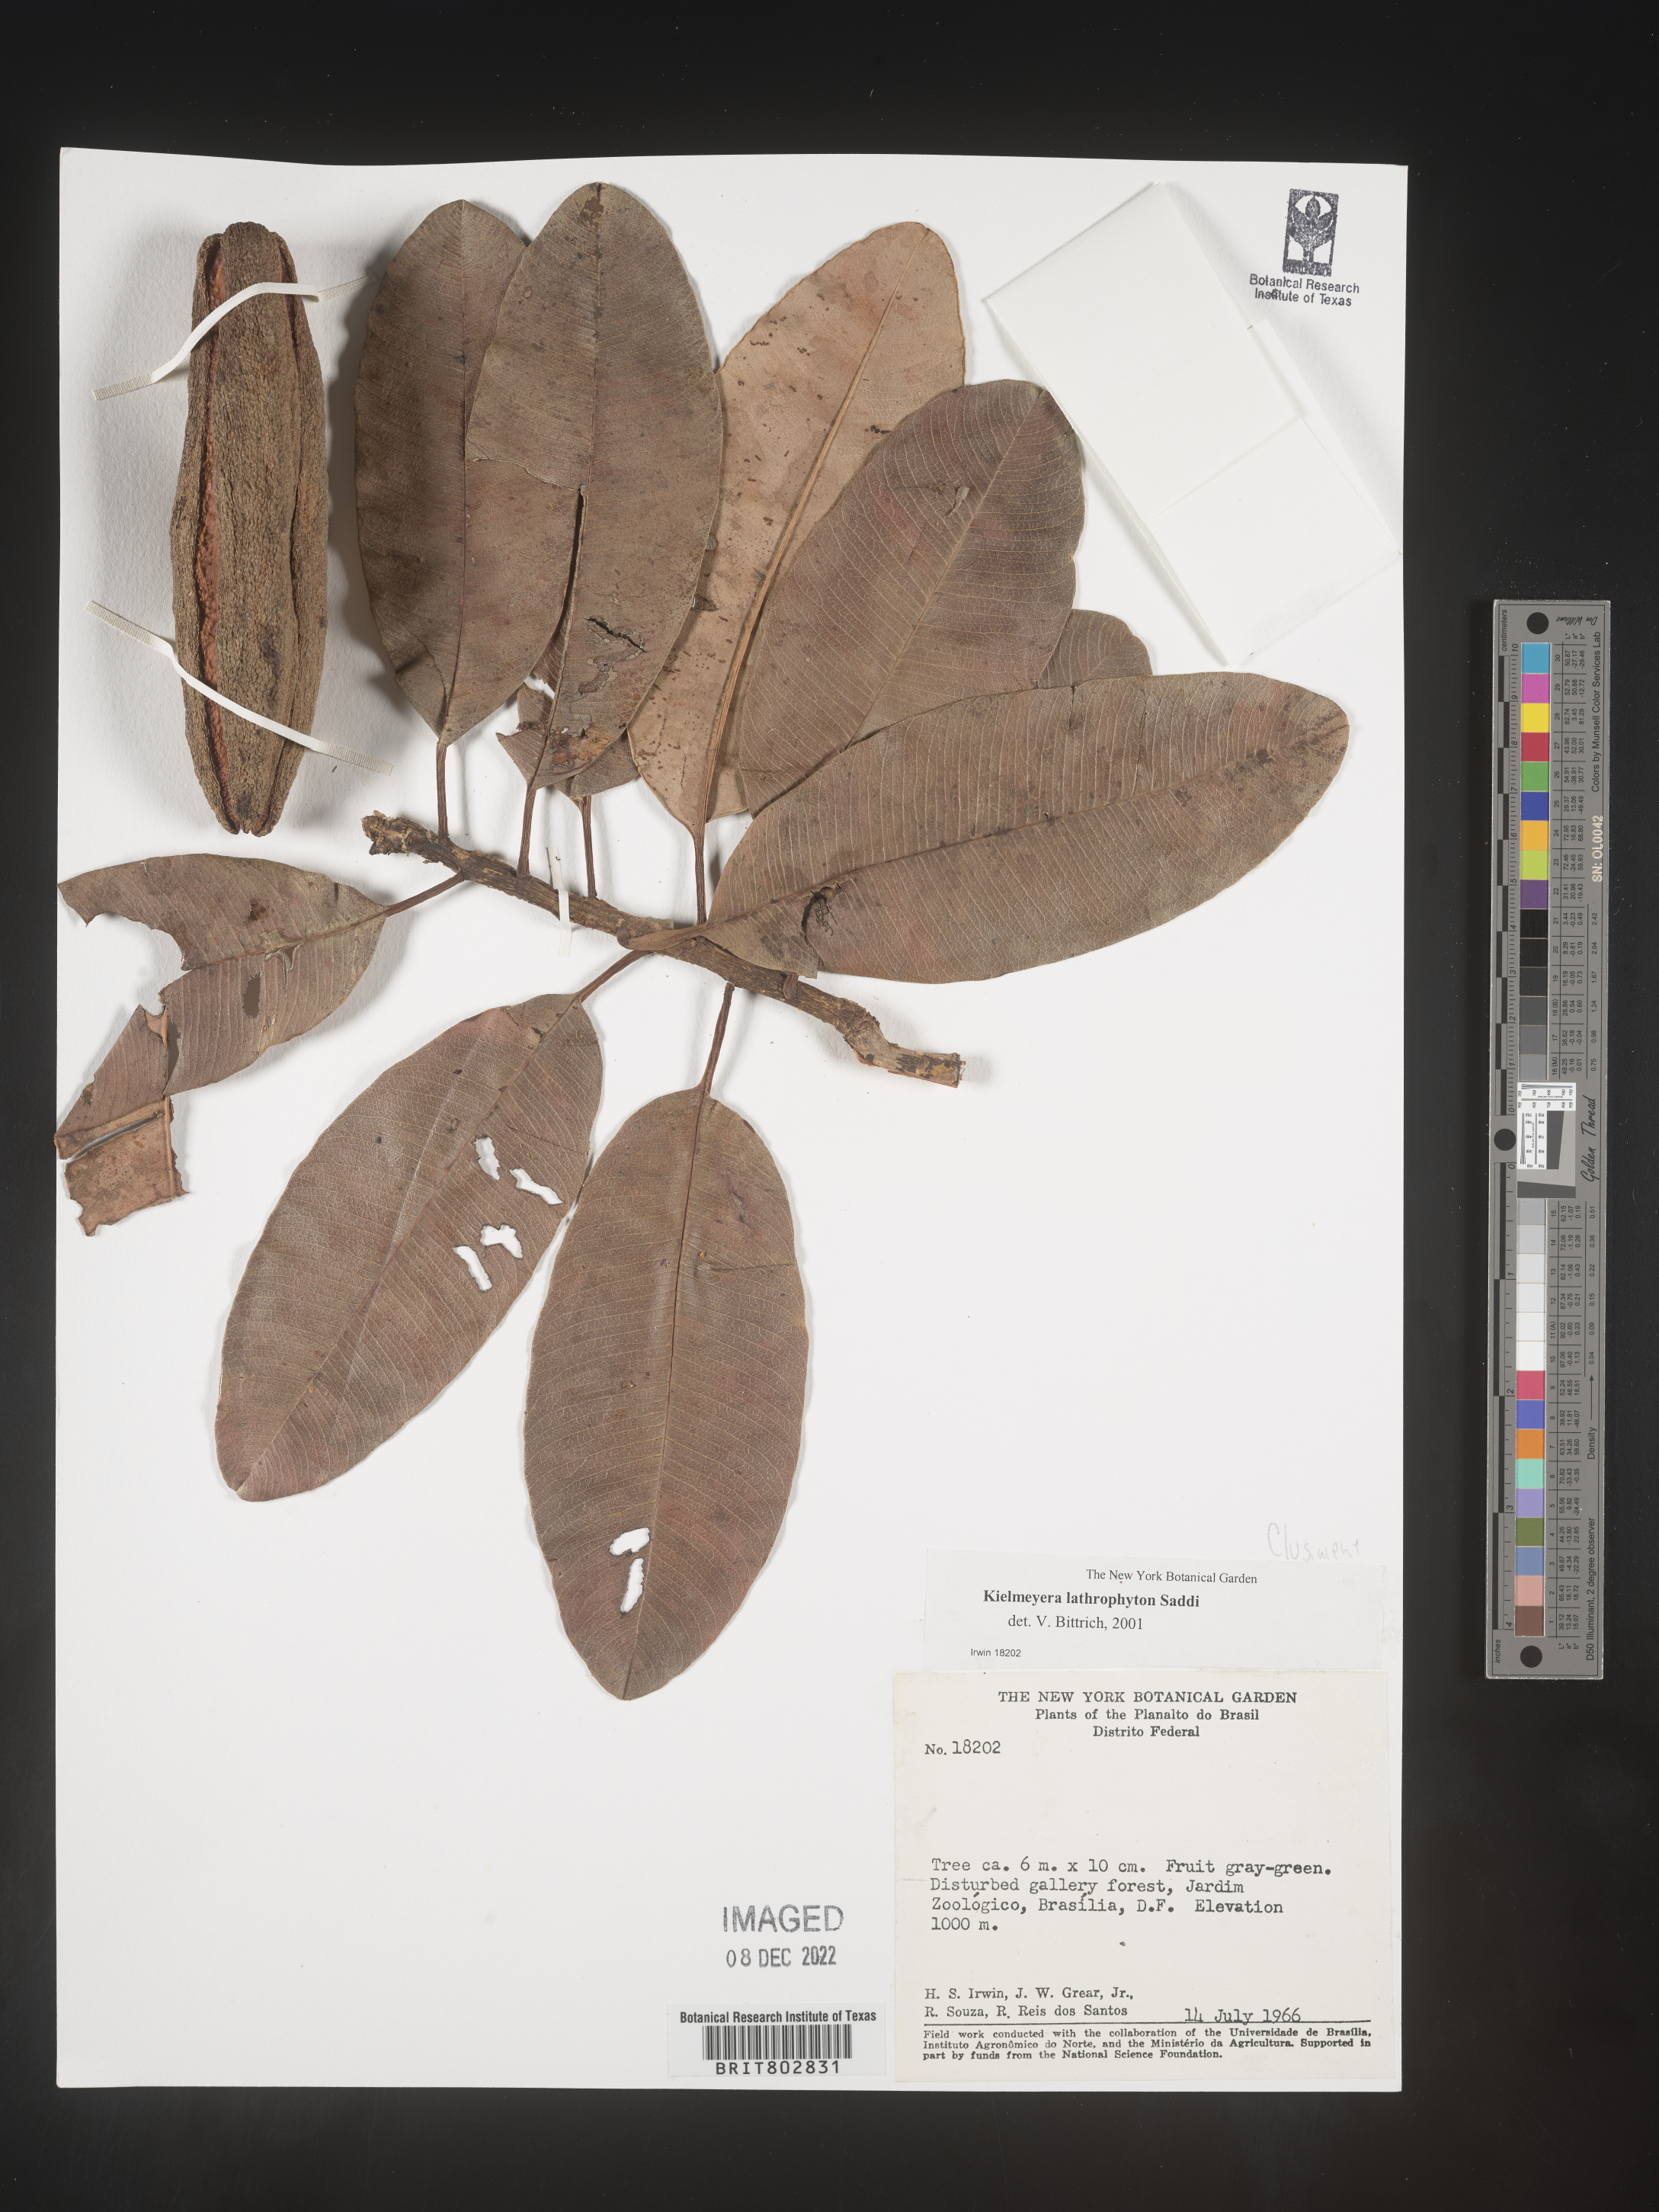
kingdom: Plantae
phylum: Tracheophyta
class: Magnoliopsida
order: Malpighiales
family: Calophyllaceae
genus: Kielmeyera
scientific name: Kielmeyera
